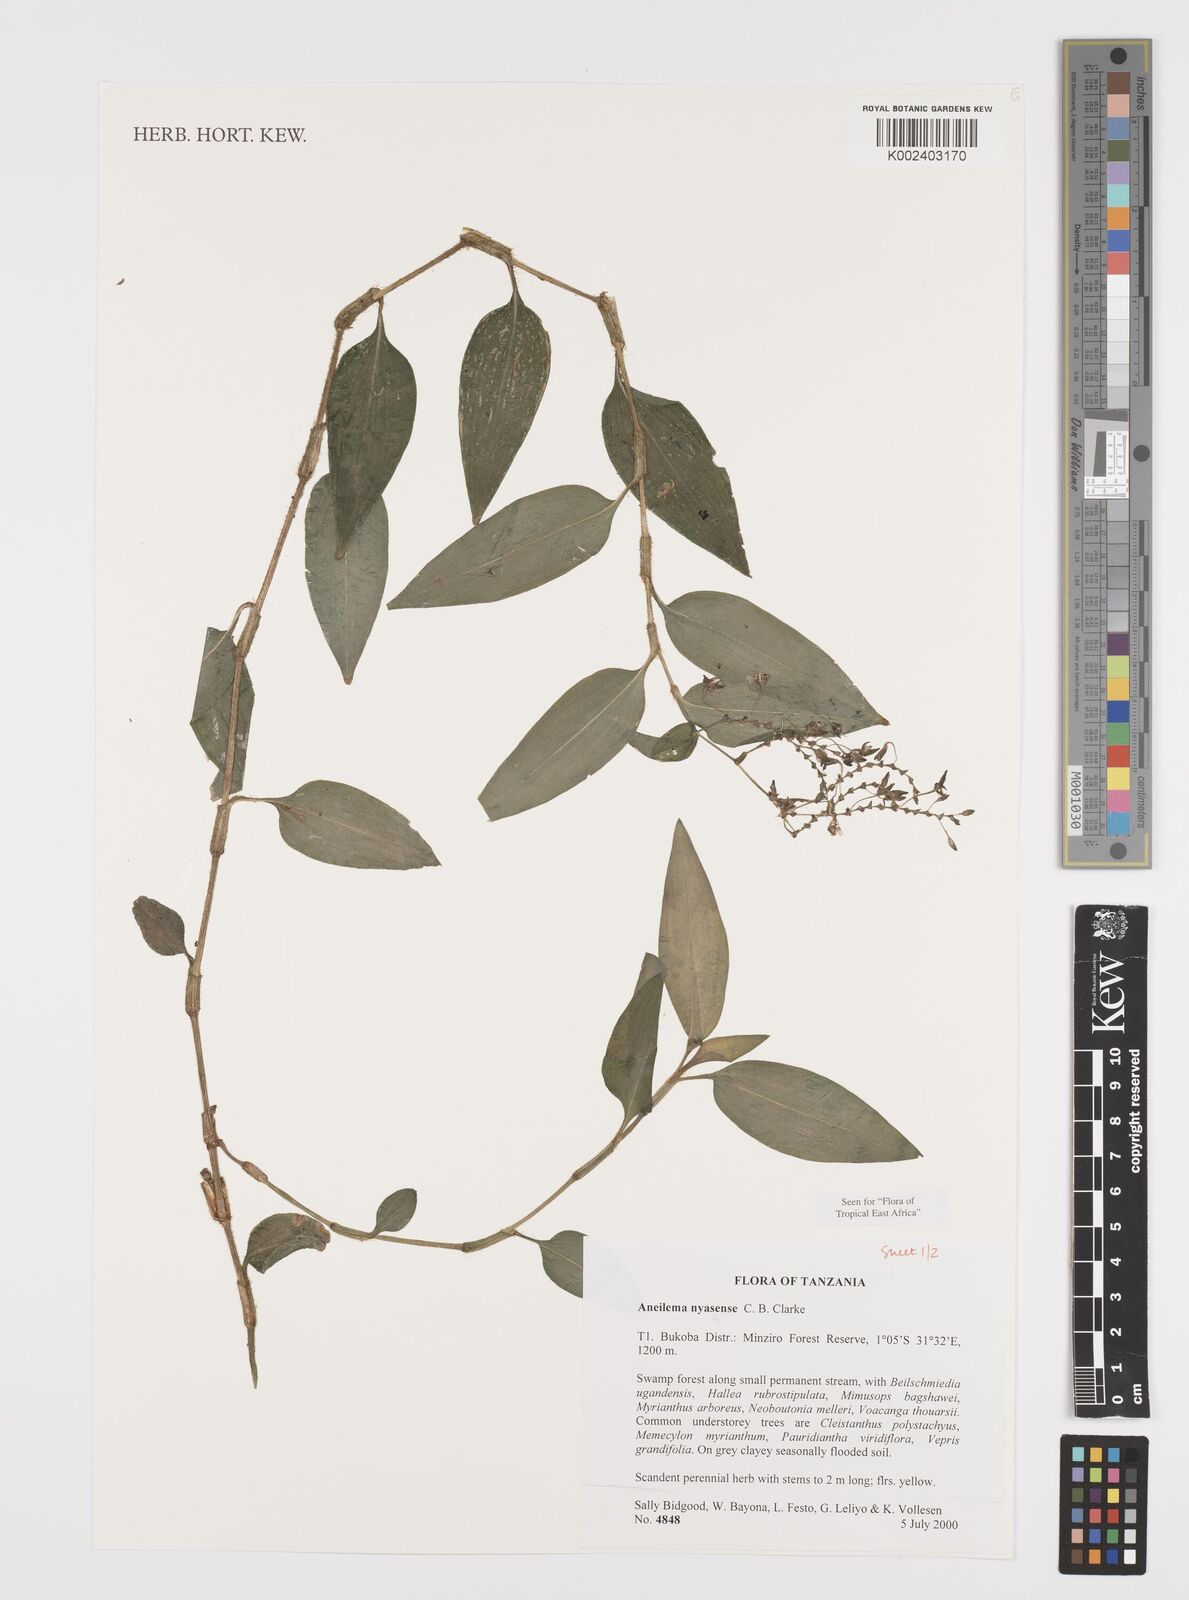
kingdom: Plantae
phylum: Tracheophyta
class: Liliopsida
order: Commelinales
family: Commelinaceae
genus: Aneilema
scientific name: Aneilema nyasense
